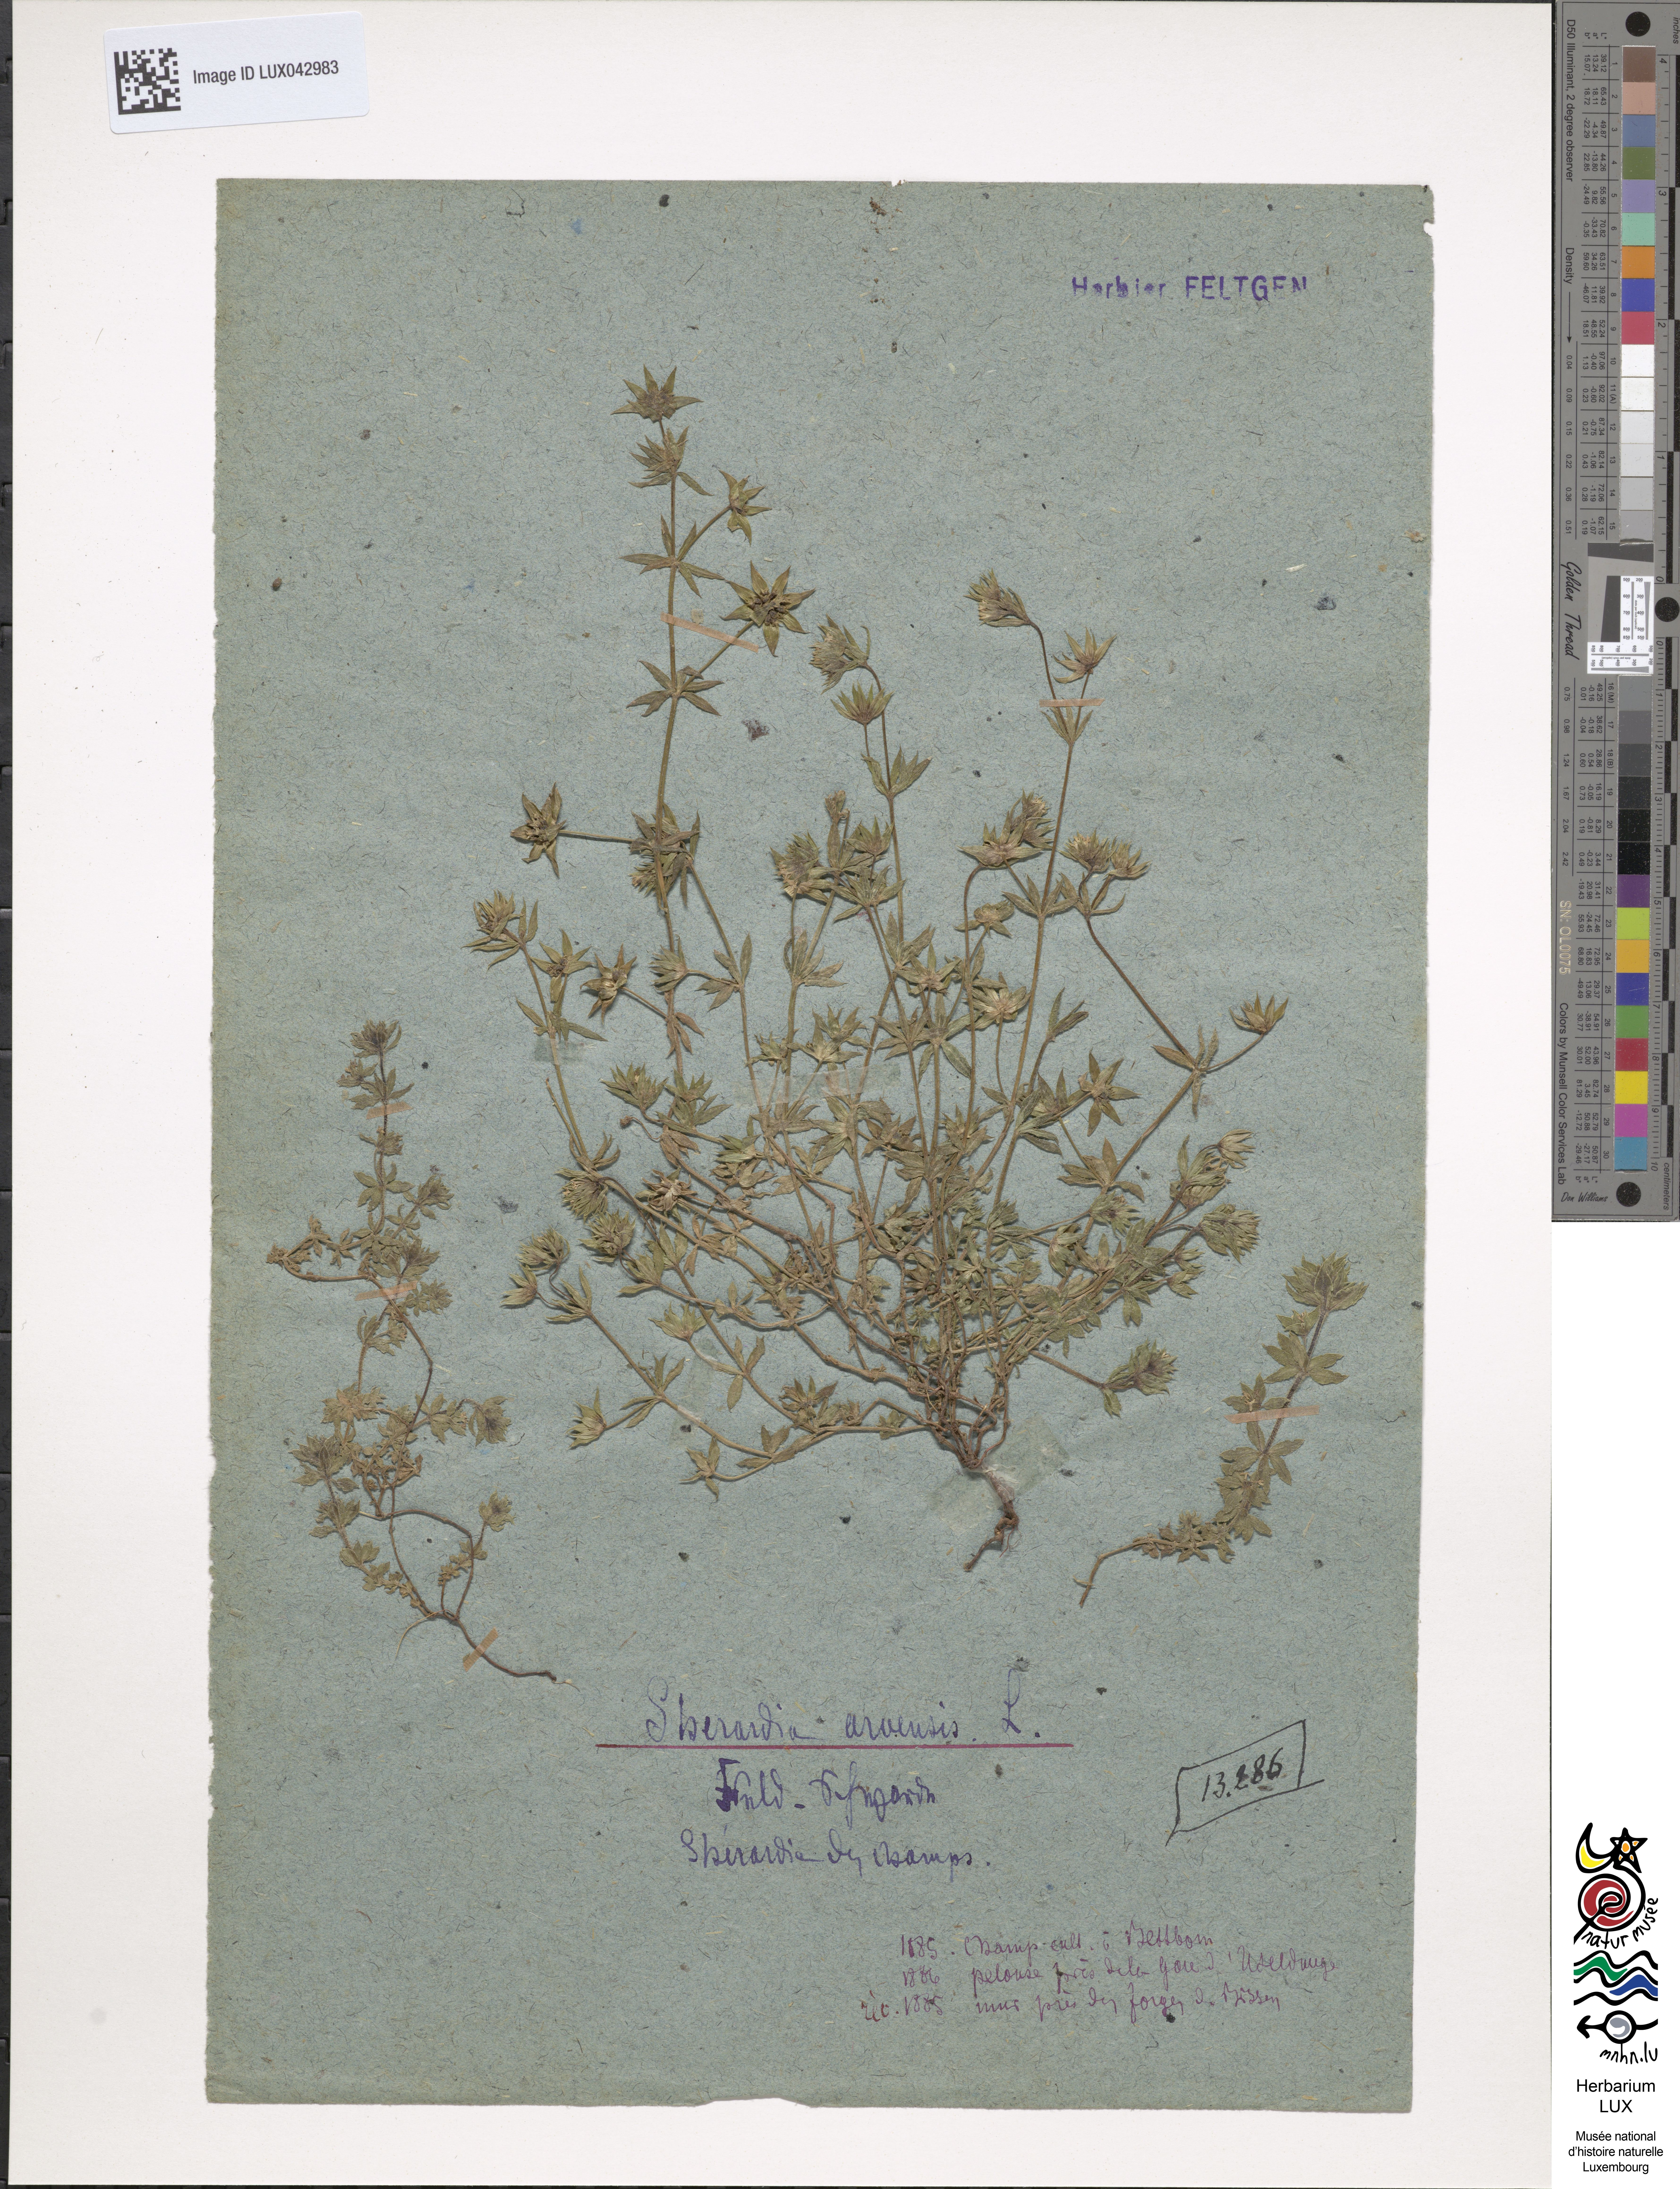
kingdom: Plantae
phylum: Tracheophyta
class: Magnoliopsida
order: Gentianales
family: Rubiaceae
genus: Sherardia
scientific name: Sherardia arvensis
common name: Field madder
